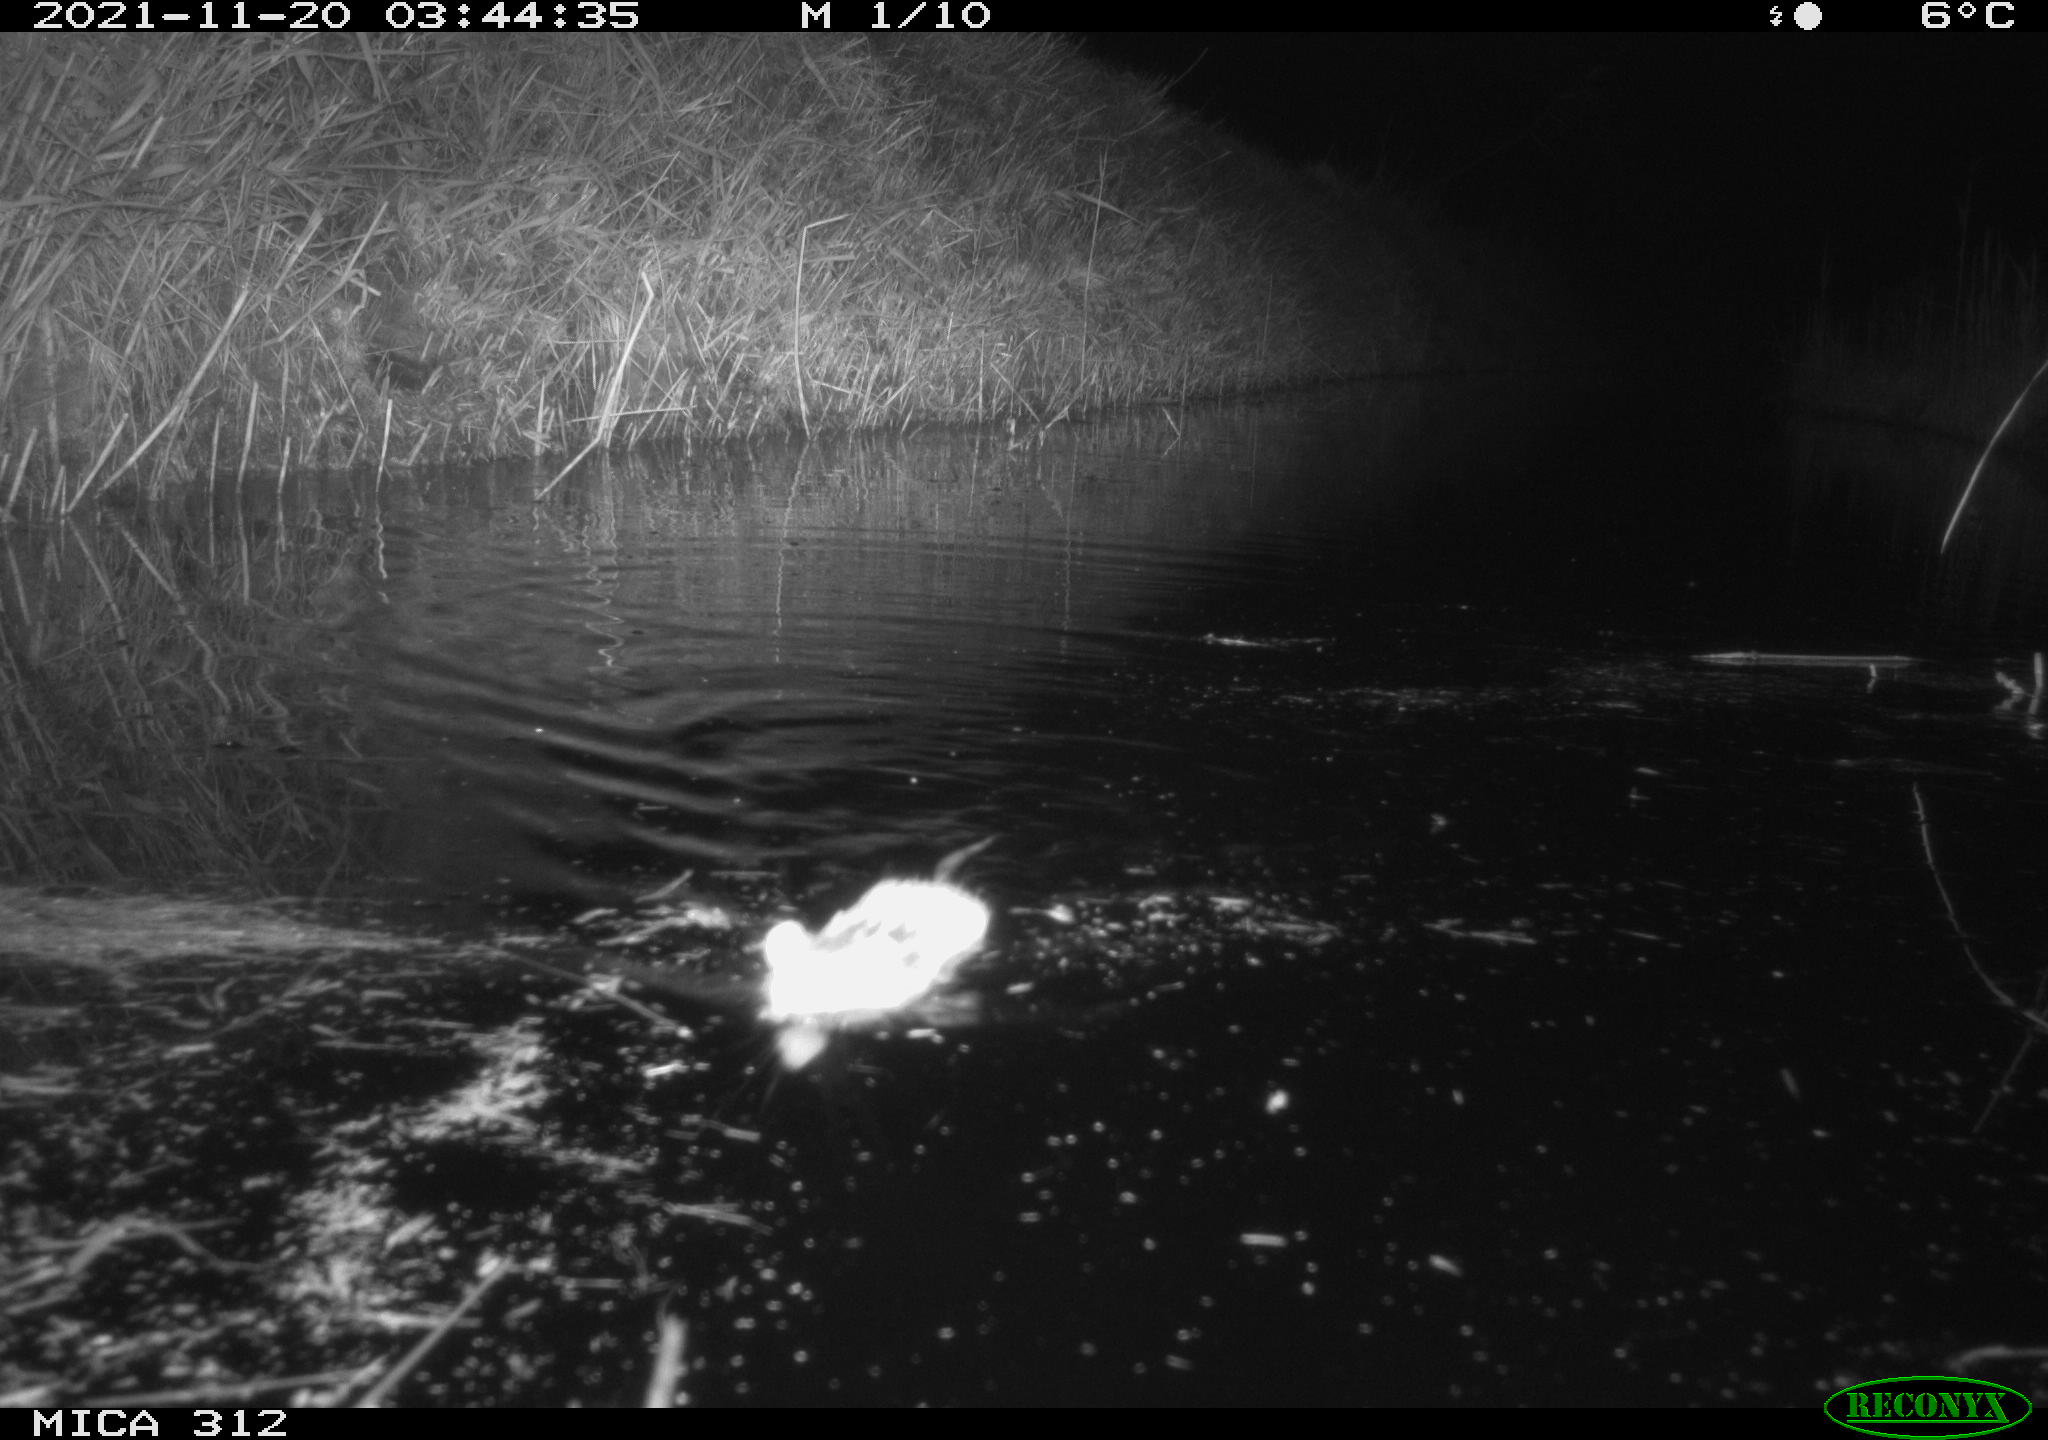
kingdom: Animalia
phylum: Chordata
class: Mammalia
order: Rodentia
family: Muridae
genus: Rattus
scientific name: Rattus norvegicus
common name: Brown rat
